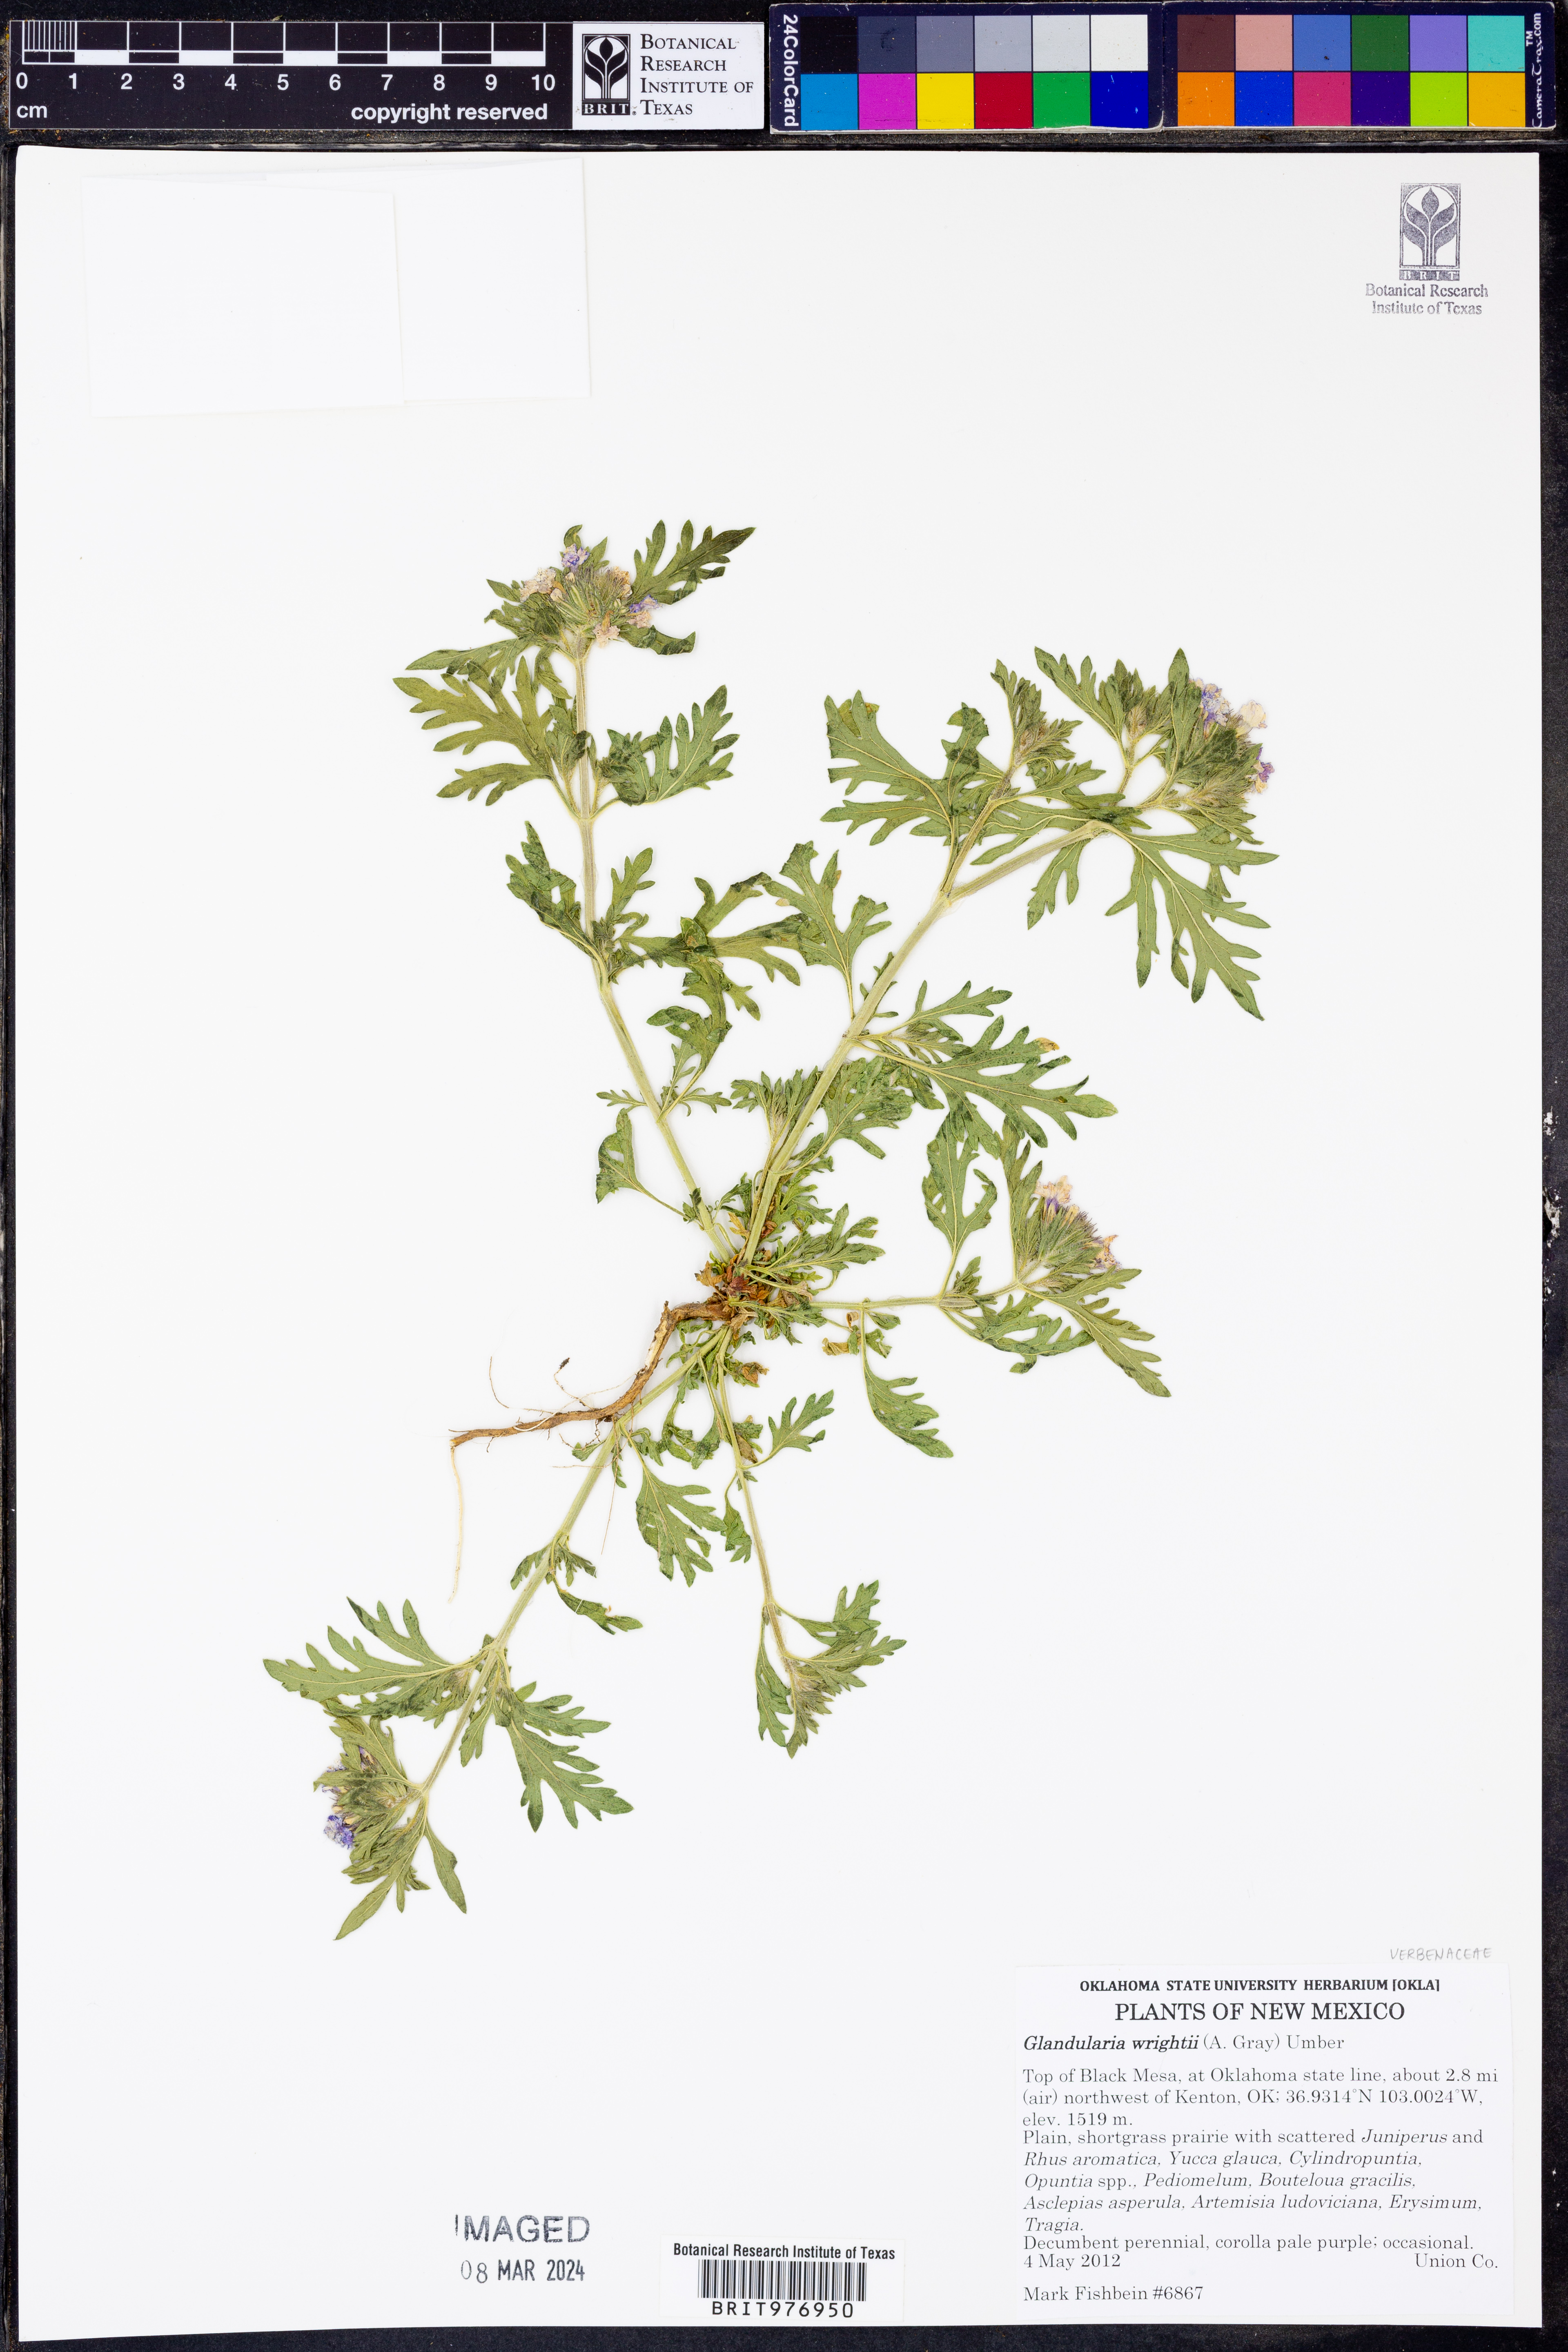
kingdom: Plantae
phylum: Tracheophyta
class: Magnoliopsida
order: Lamiales
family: Verbenaceae
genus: Verbena
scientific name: Verbena bipinnatifida
